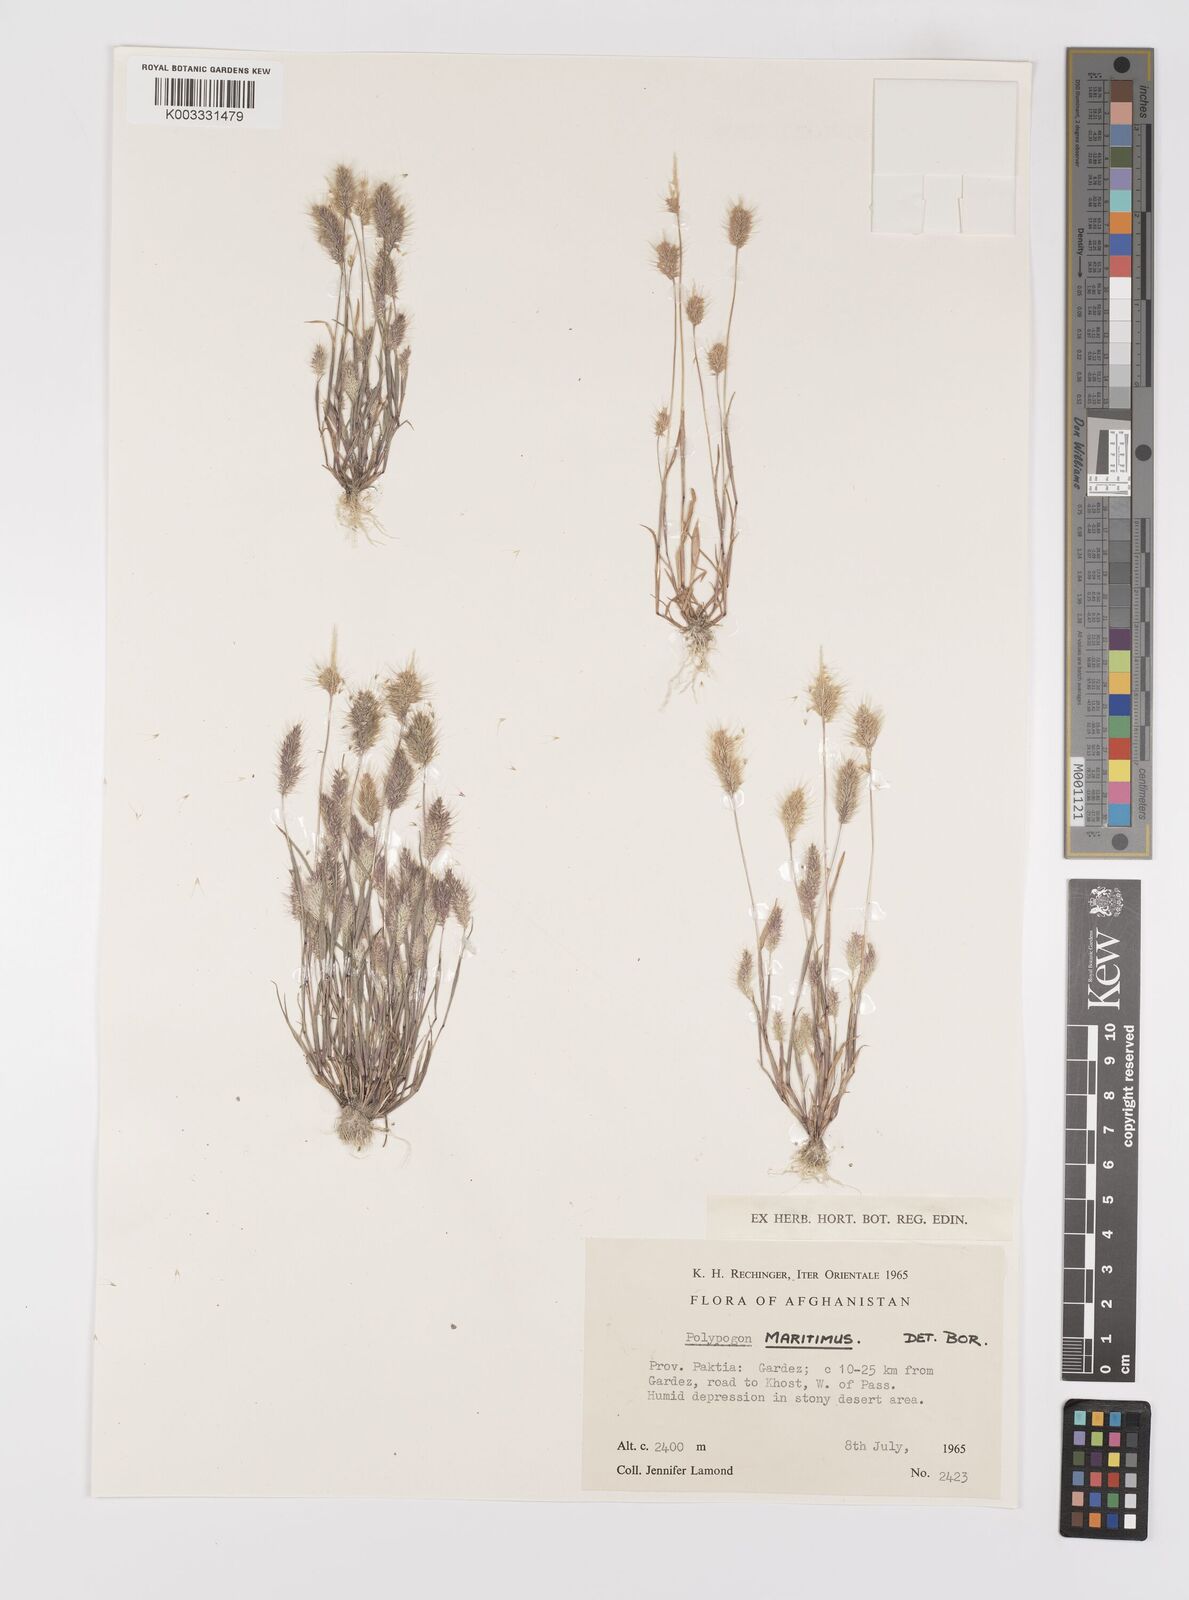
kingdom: Plantae
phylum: Tracheophyta
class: Liliopsida
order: Poales
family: Poaceae
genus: Polypogon
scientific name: Polypogon maritimus
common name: Mediterranean rabbitsfoot grass
